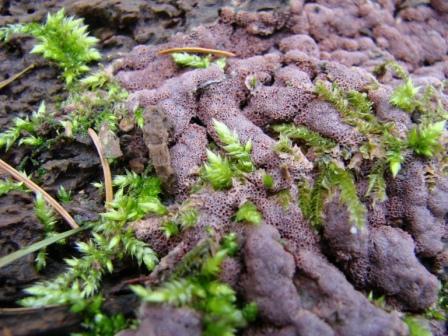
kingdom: Fungi
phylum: Basidiomycota
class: Agaricomycetes
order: Polyporales
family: Irpicaceae
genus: Ceriporia
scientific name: Ceriporia excelsa
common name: lilla voksporesvamp
